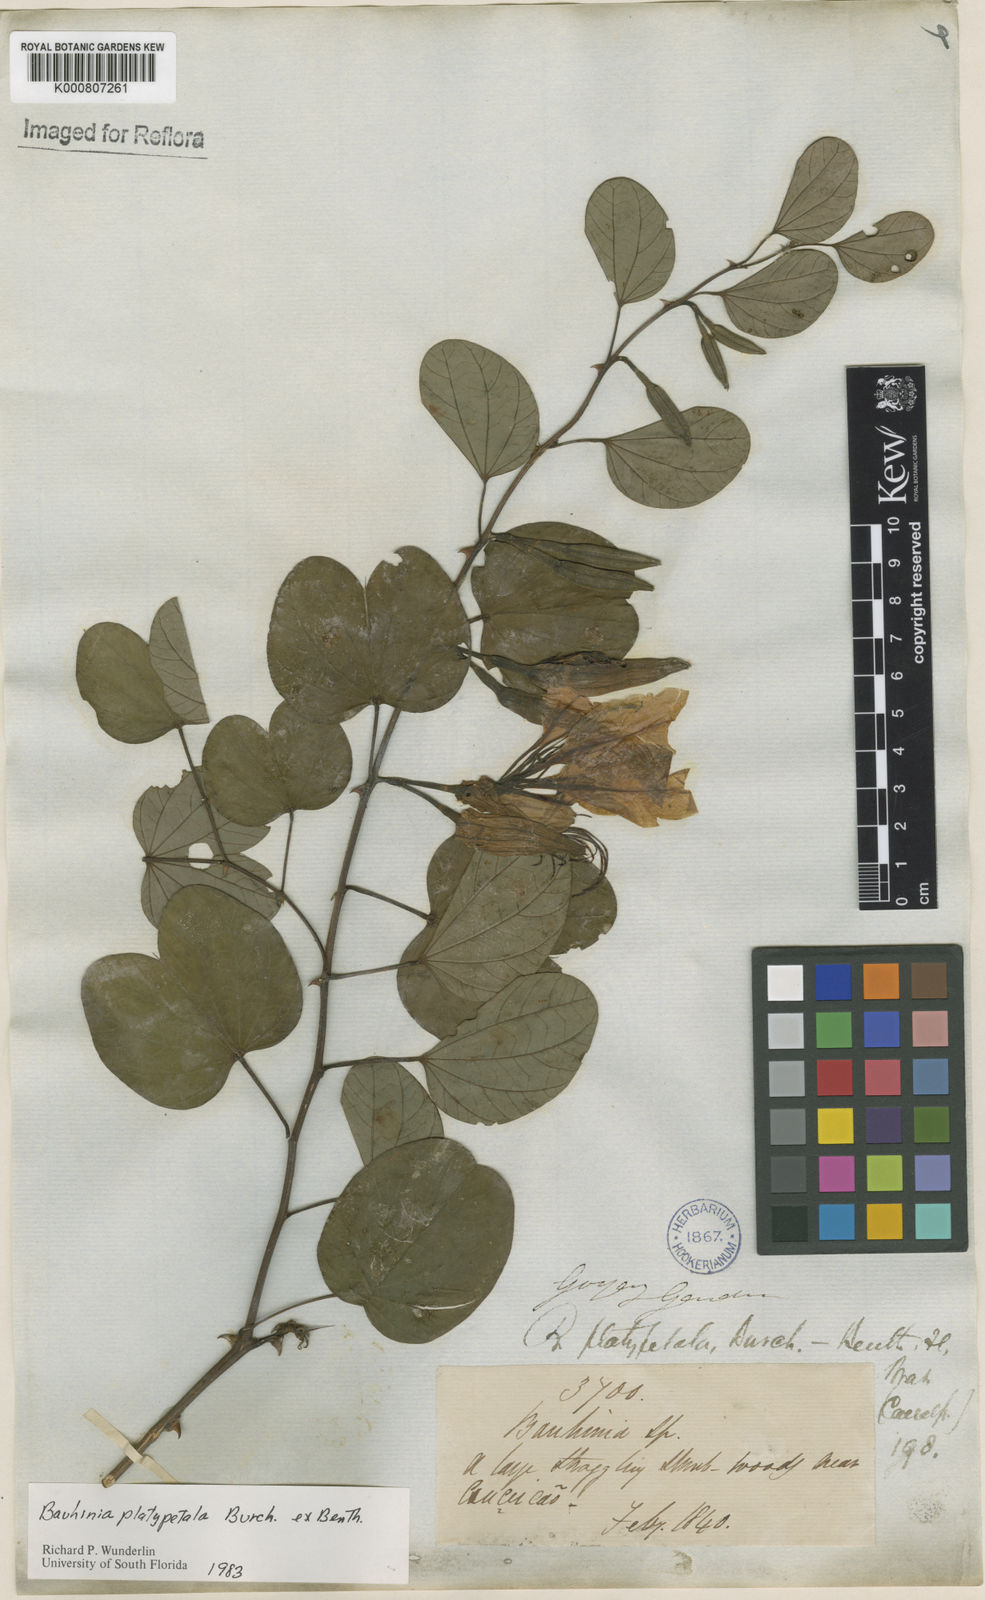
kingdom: Plantae
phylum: Tracheophyta
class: Magnoliopsida
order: Fabales
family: Fabaceae
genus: Bauhinia
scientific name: Bauhinia platypetala
